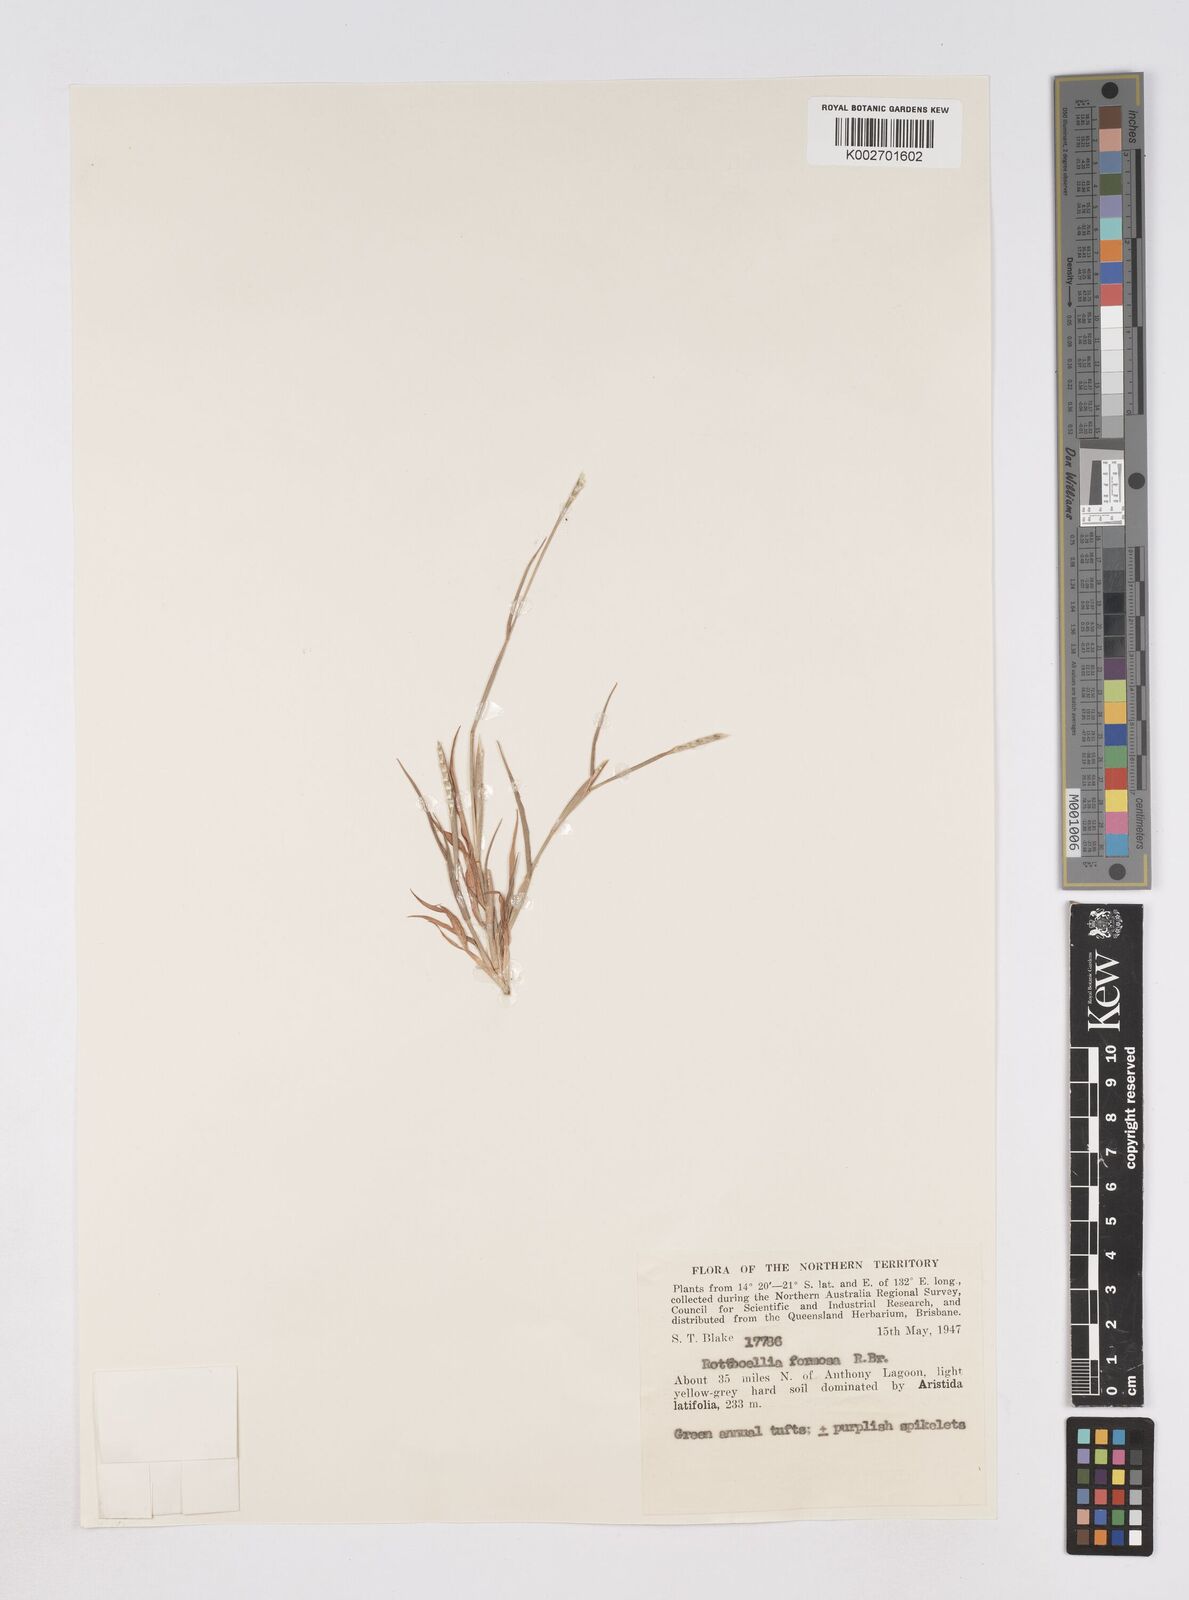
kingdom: Plantae
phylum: Tracheophyta
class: Liliopsida
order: Poales
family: Poaceae
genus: Heteropholis
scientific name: Heteropholis
